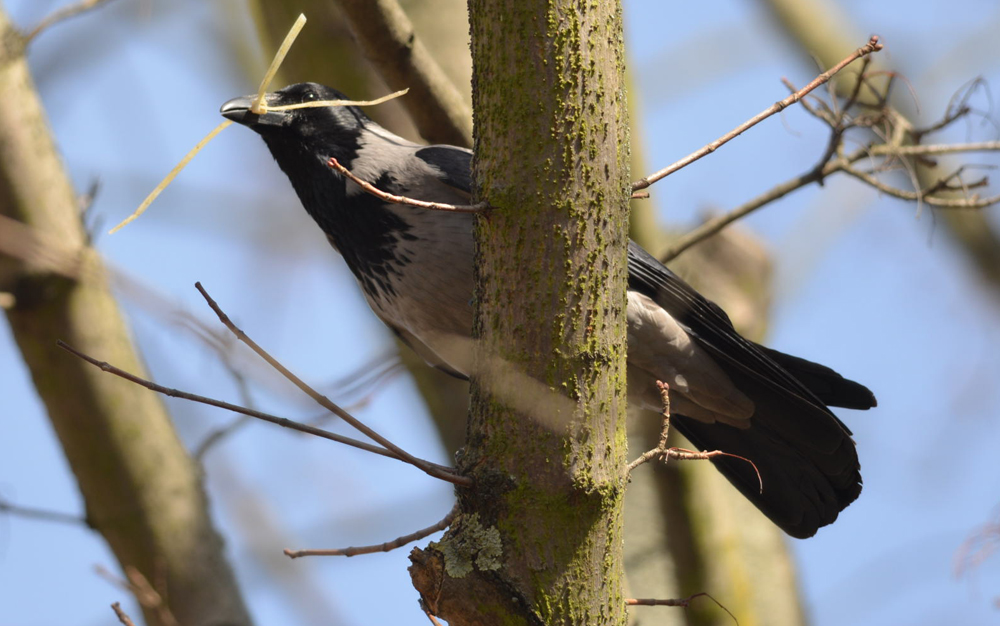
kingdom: Animalia
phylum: Chordata
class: Aves
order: Passeriformes
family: Corvidae
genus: Corvus
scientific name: Corvus cornix
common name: Hooded crow
